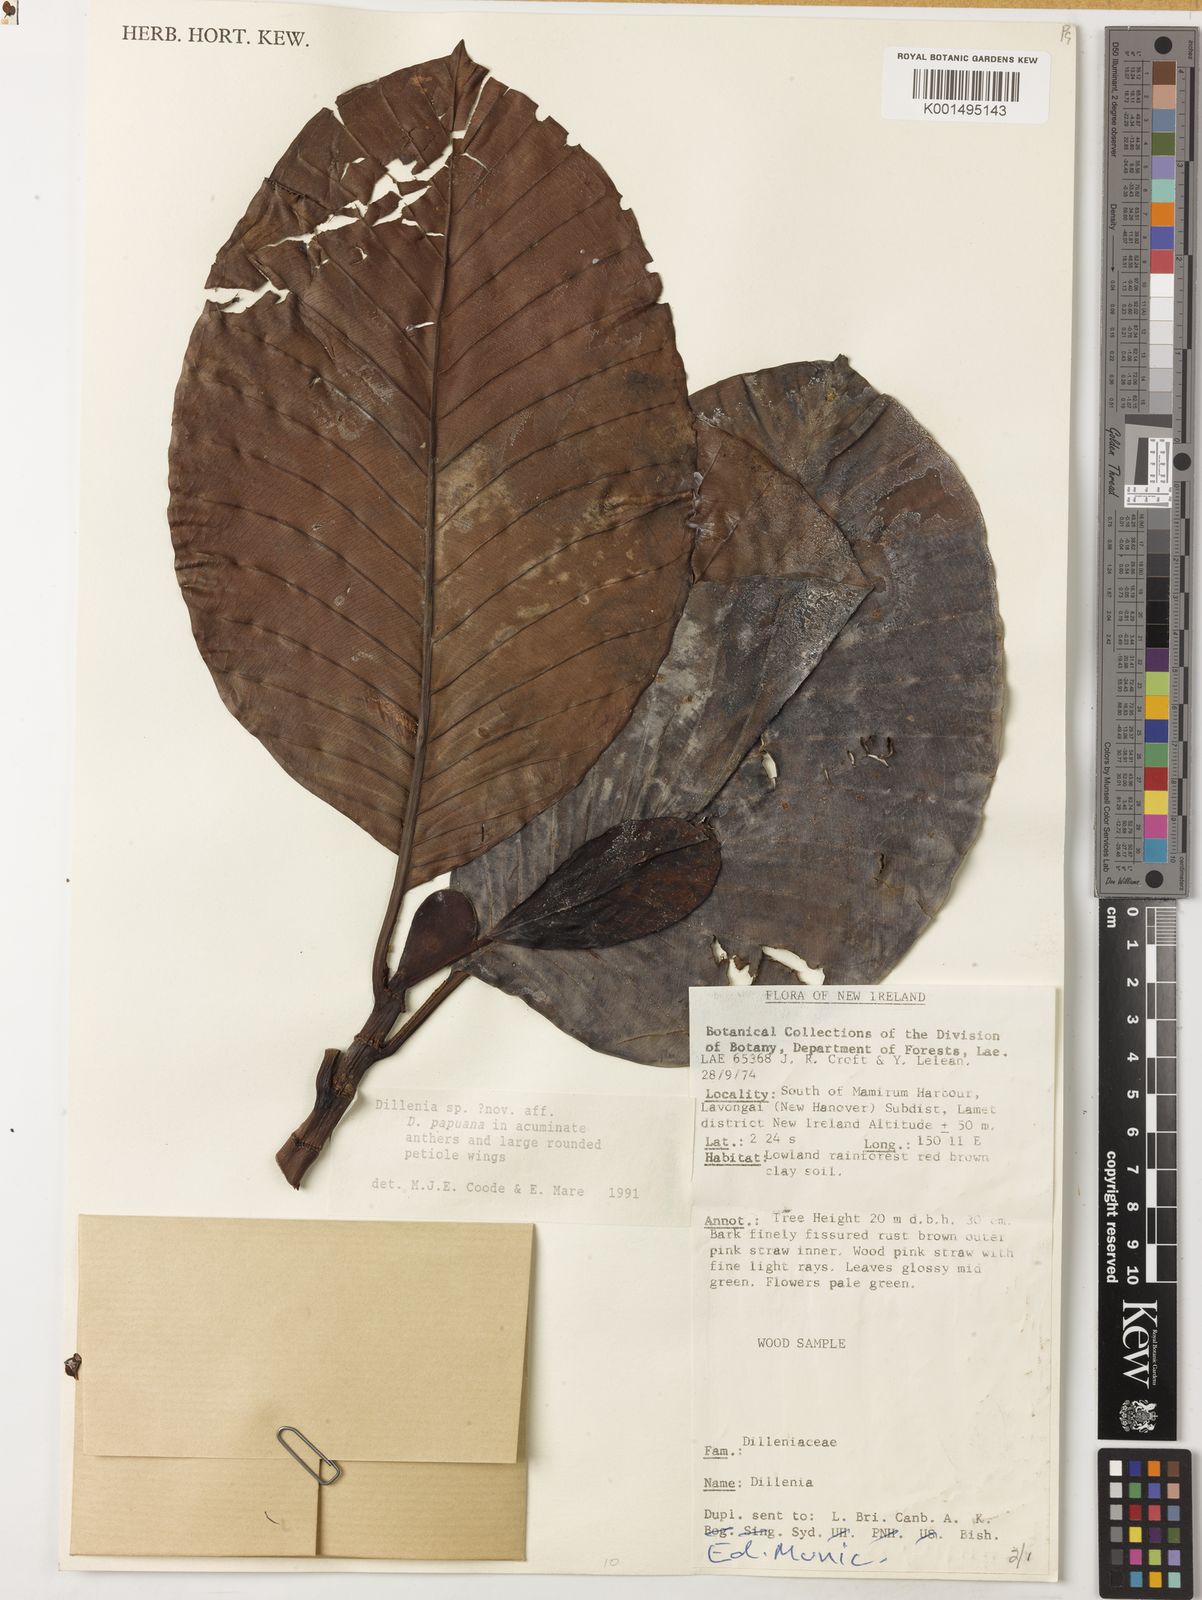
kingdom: Plantae
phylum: Tracheophyta
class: Magnoliopsida
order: Dilleniales
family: Dilleniaceae
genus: Dillenia
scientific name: Dillenia
